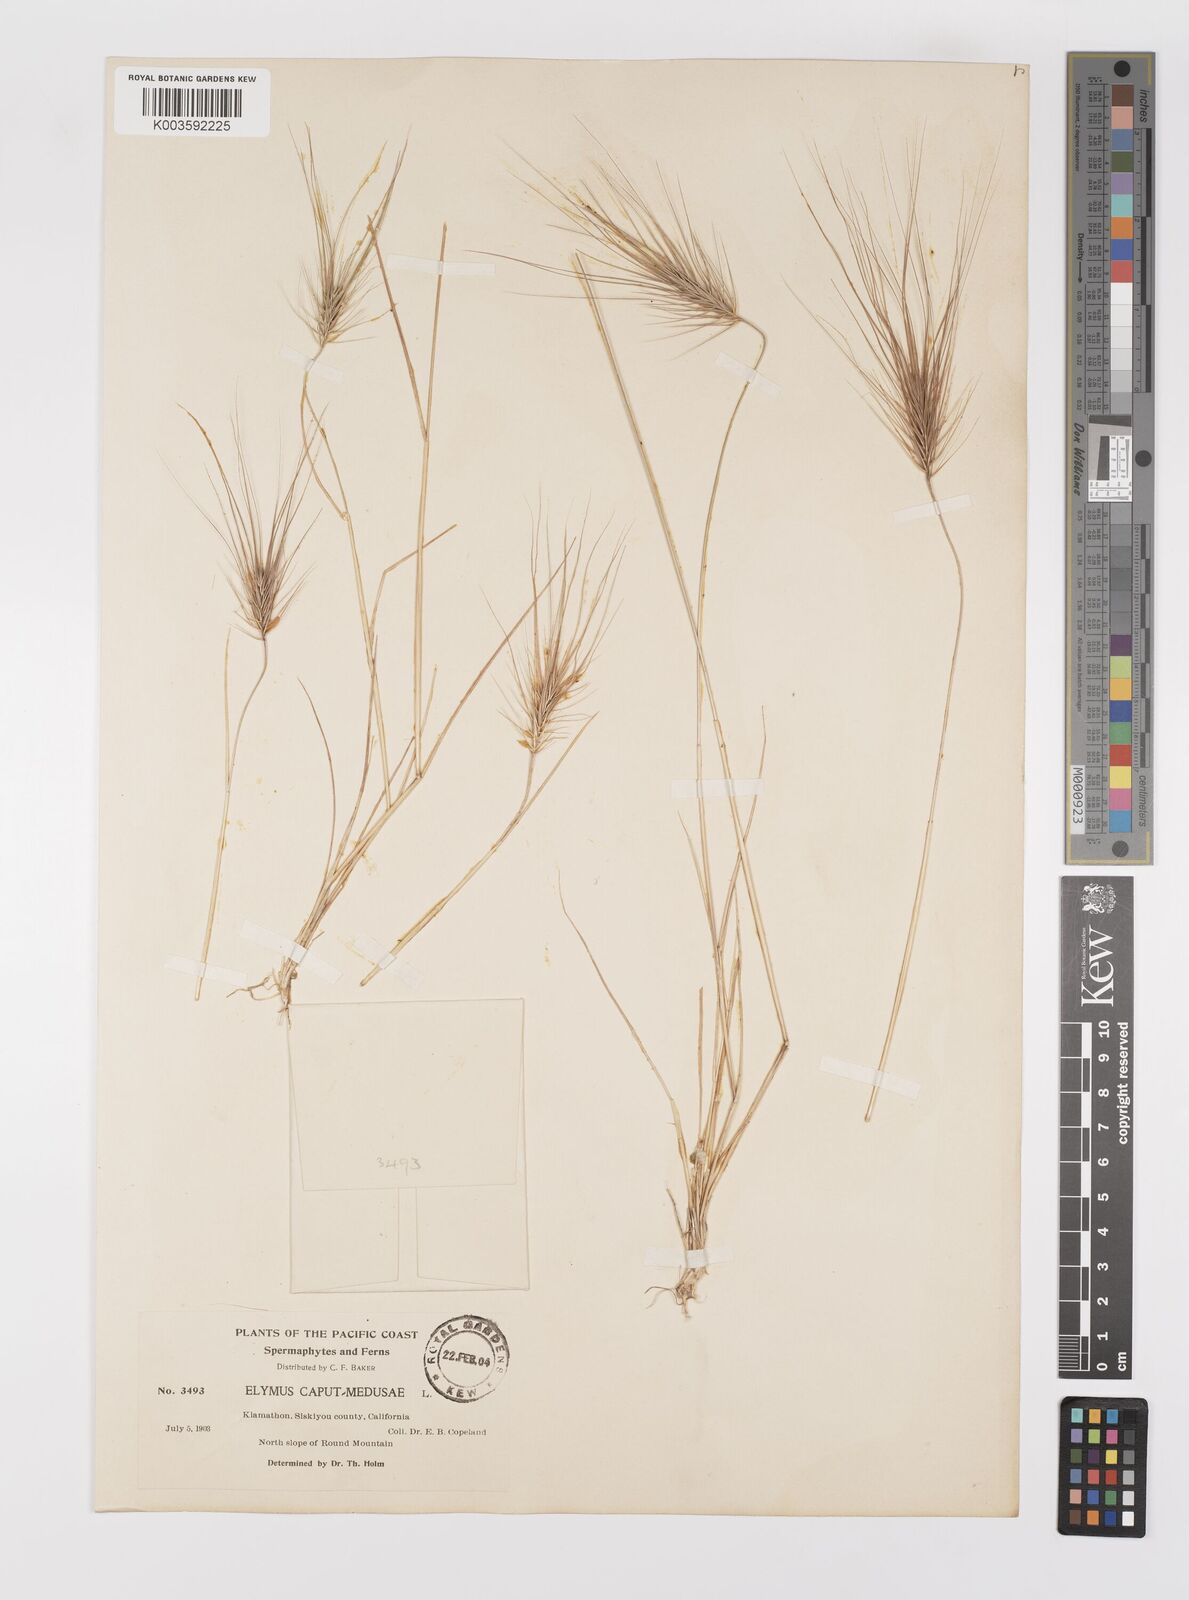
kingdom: Plantae
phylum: Tracheophyta
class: Liliopsida
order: Poales
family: Poaceae
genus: Taeniatherum
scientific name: Taeniatherum caput-medusae
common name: Medusahead
